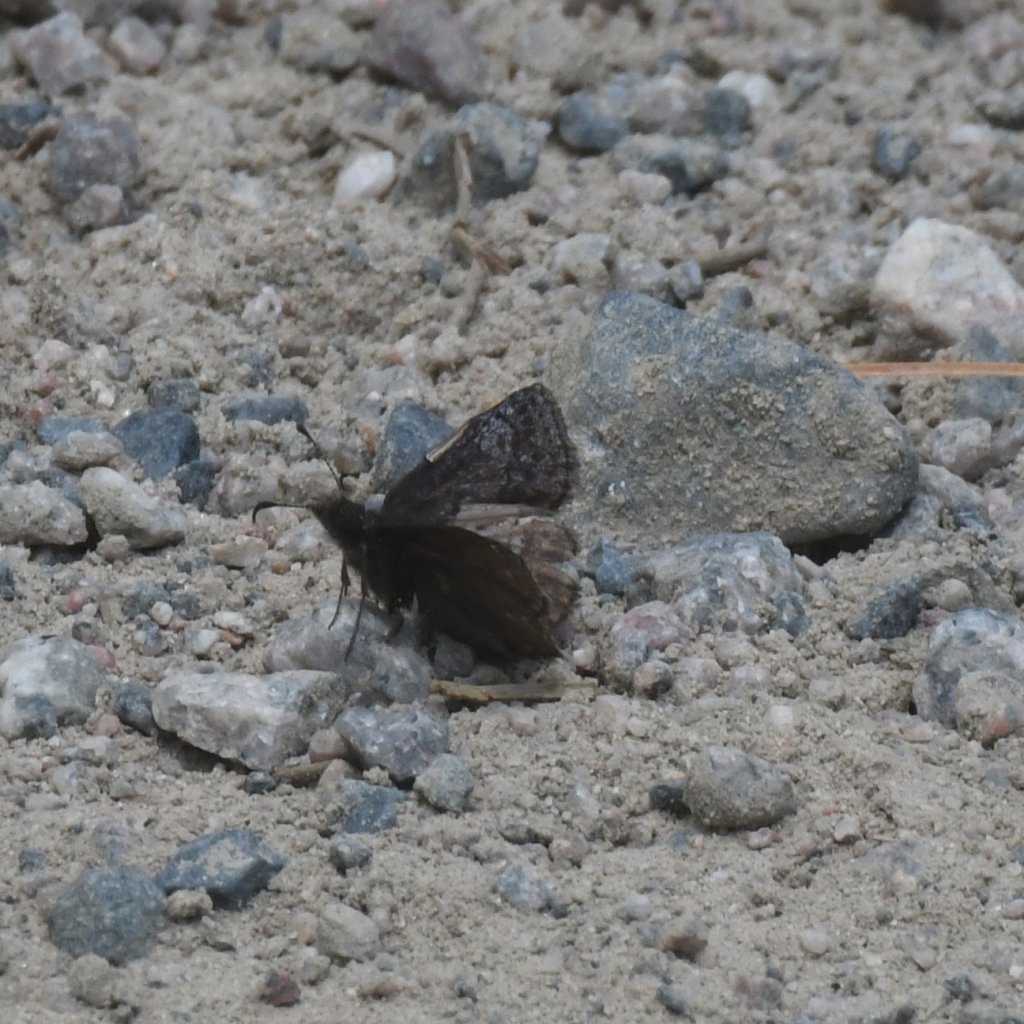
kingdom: Animalia
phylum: Arthropoda
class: Insecta
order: Lepidoptera
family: Hesperiidae
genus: Erynnis
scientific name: Erynnis icelus
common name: Dreamy Duskywing
